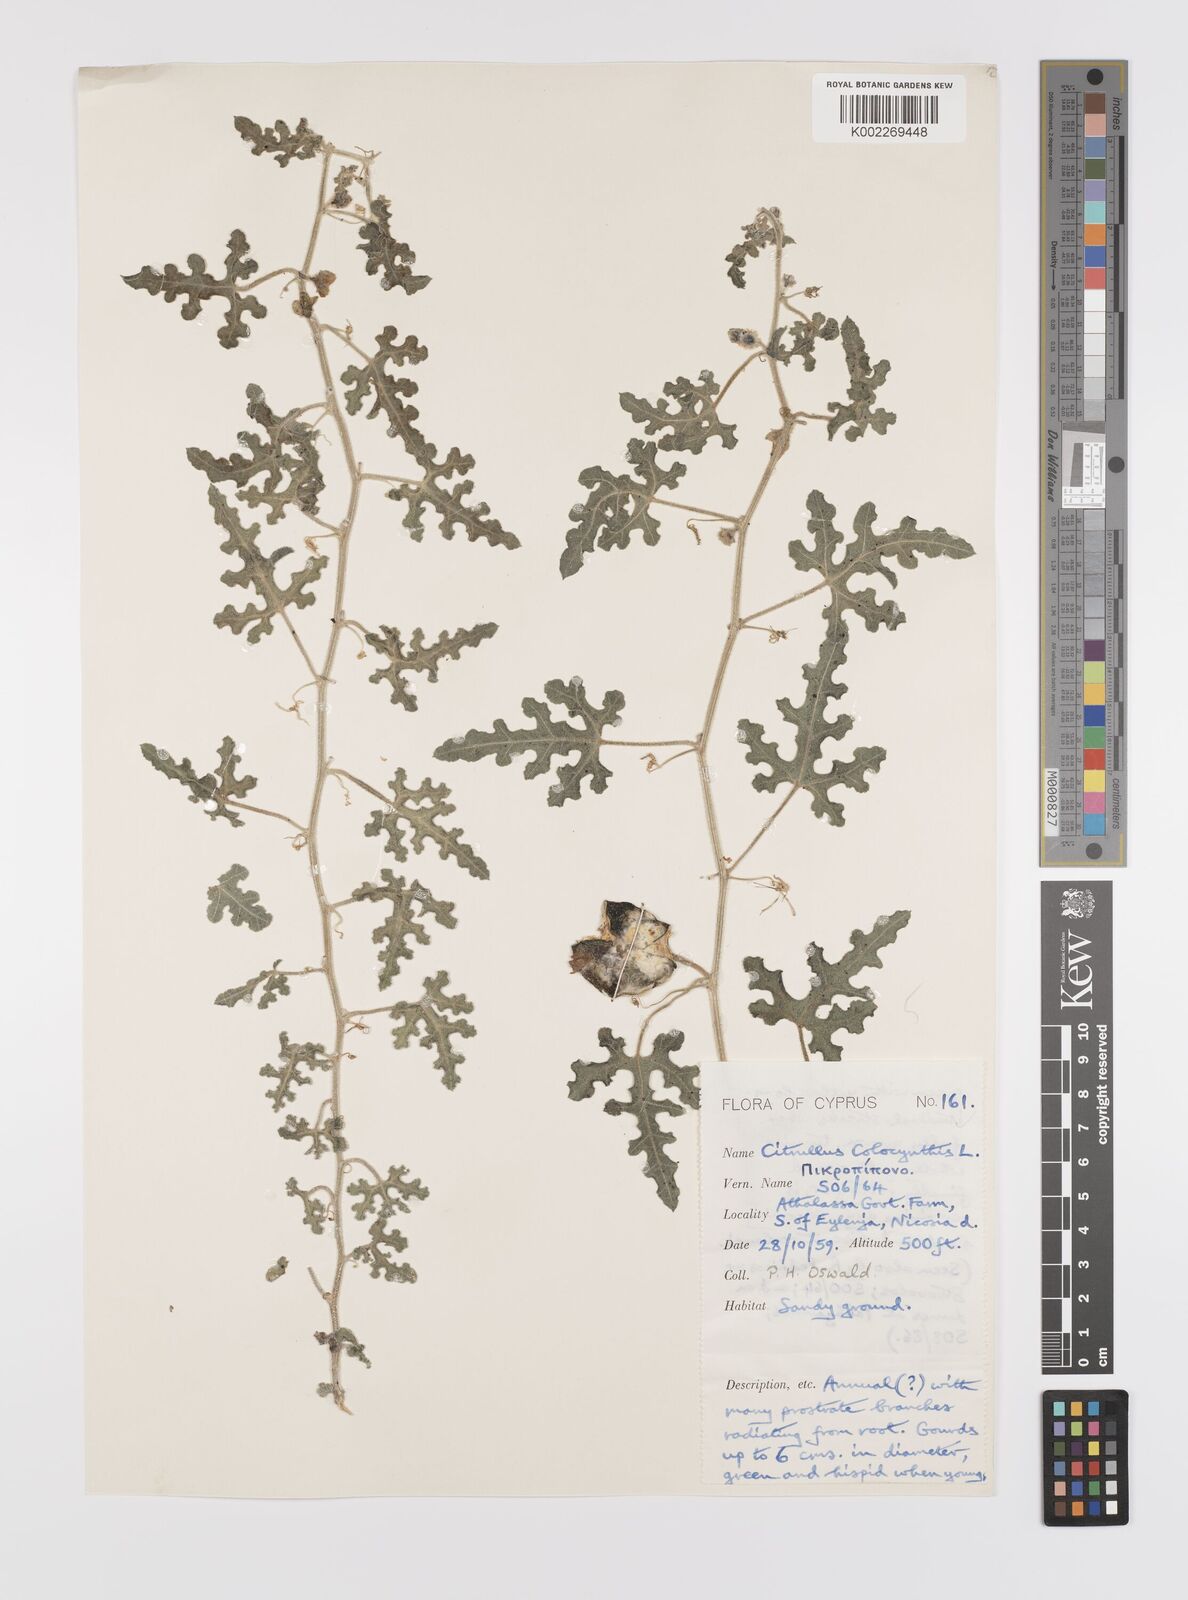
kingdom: Plantae
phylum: Tracheophyta
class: Magnoliopsida
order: Cucurbitales
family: Cucurbitaceae
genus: Citrullus
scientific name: Citrullus colocynthis
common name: Colocynth
